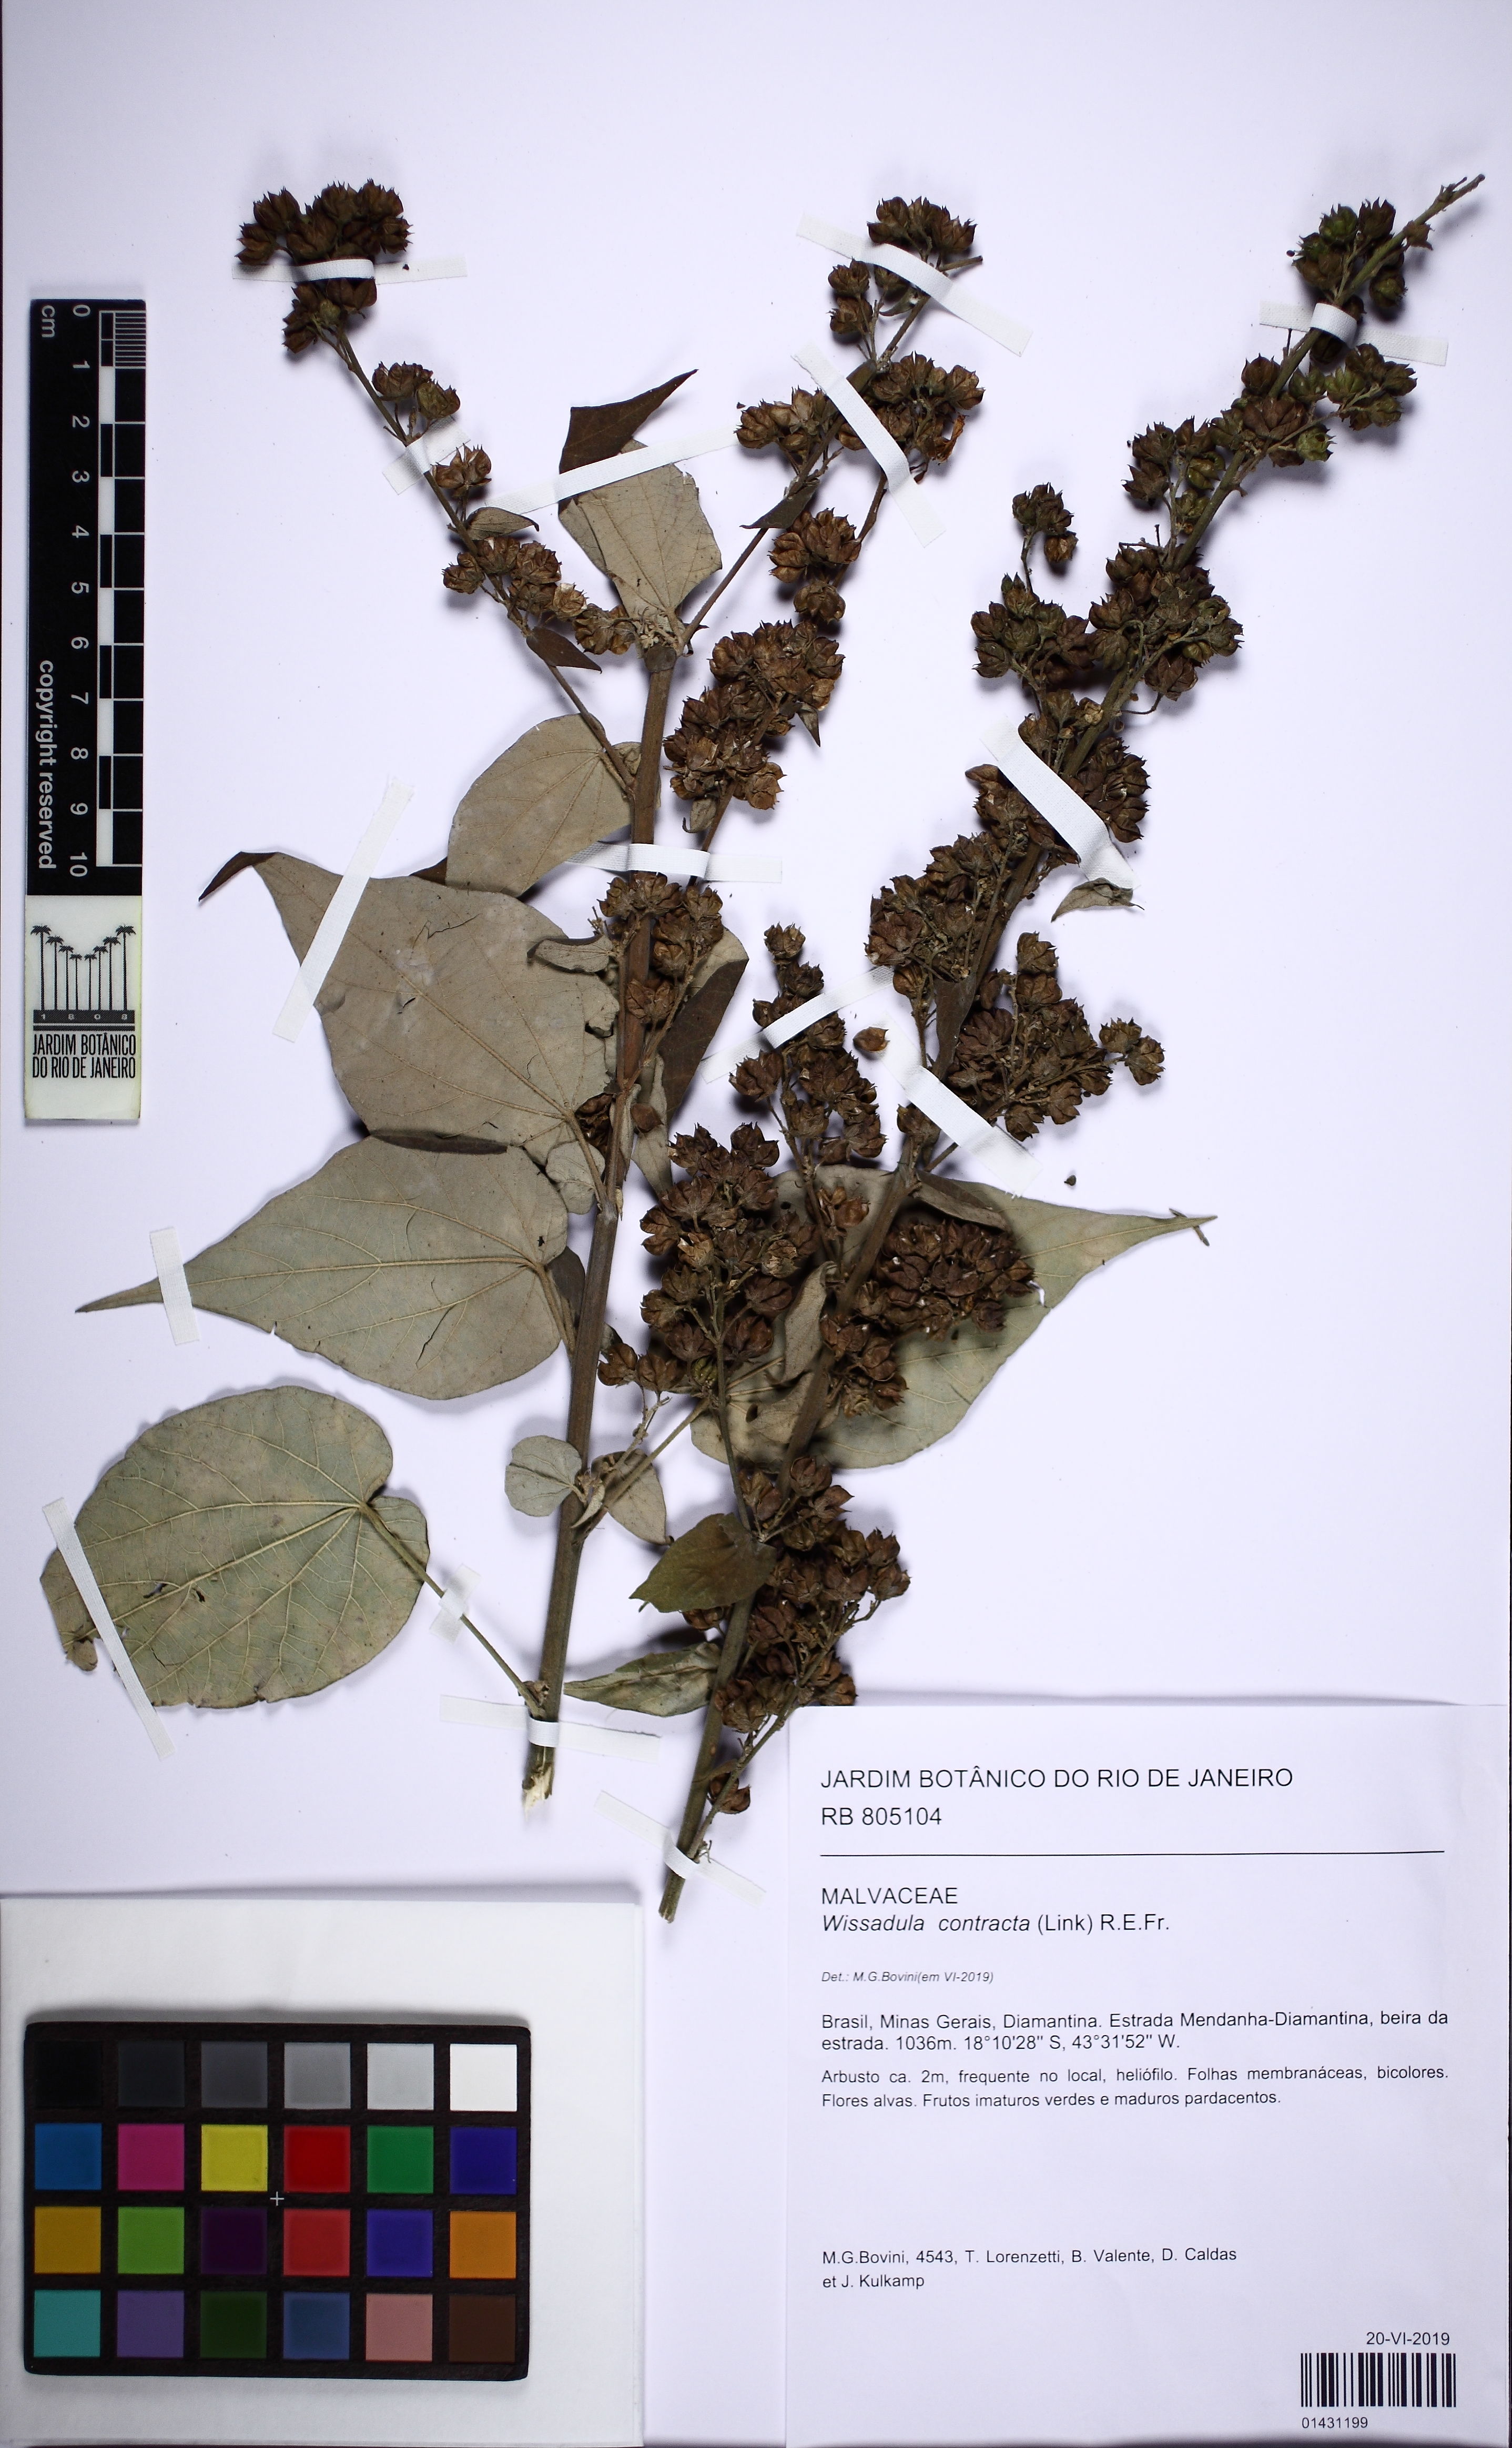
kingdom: Plantae
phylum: Tracheophyta
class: Magnoliopsida
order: Malvales
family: Malvaceae
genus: Wissadula
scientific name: Wissadula contracta
